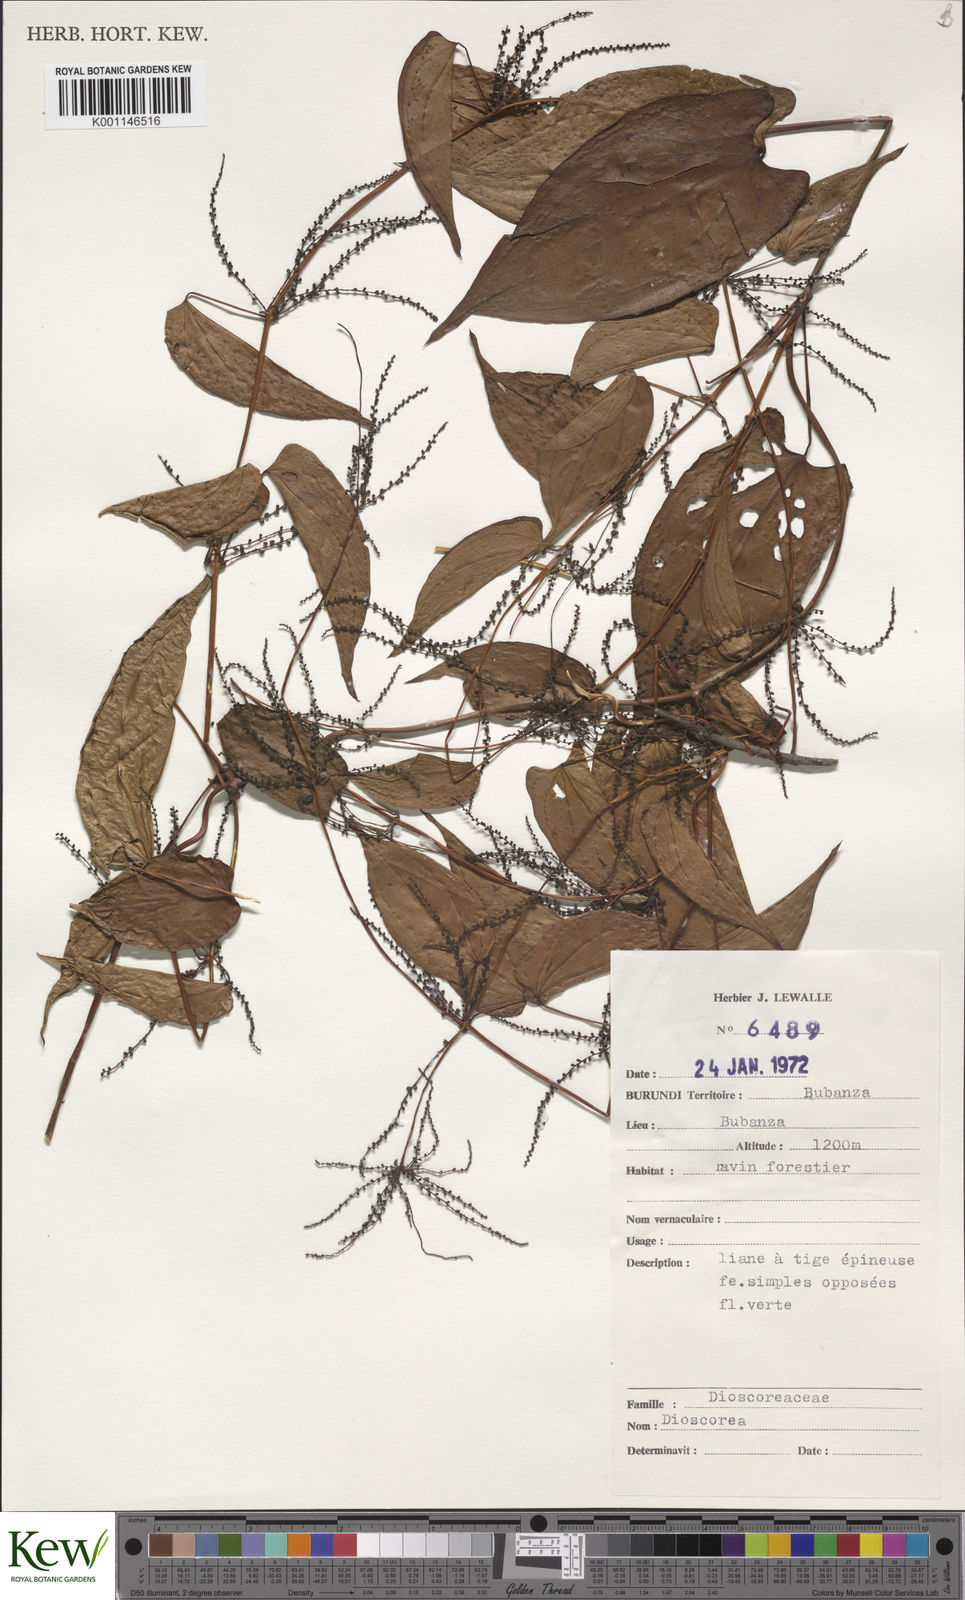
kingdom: Plantae
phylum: Tracheophyta
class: Liliopsida
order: Dioscoreales
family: Dioscoreaceae
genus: Dioscorea
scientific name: Dioscorea
